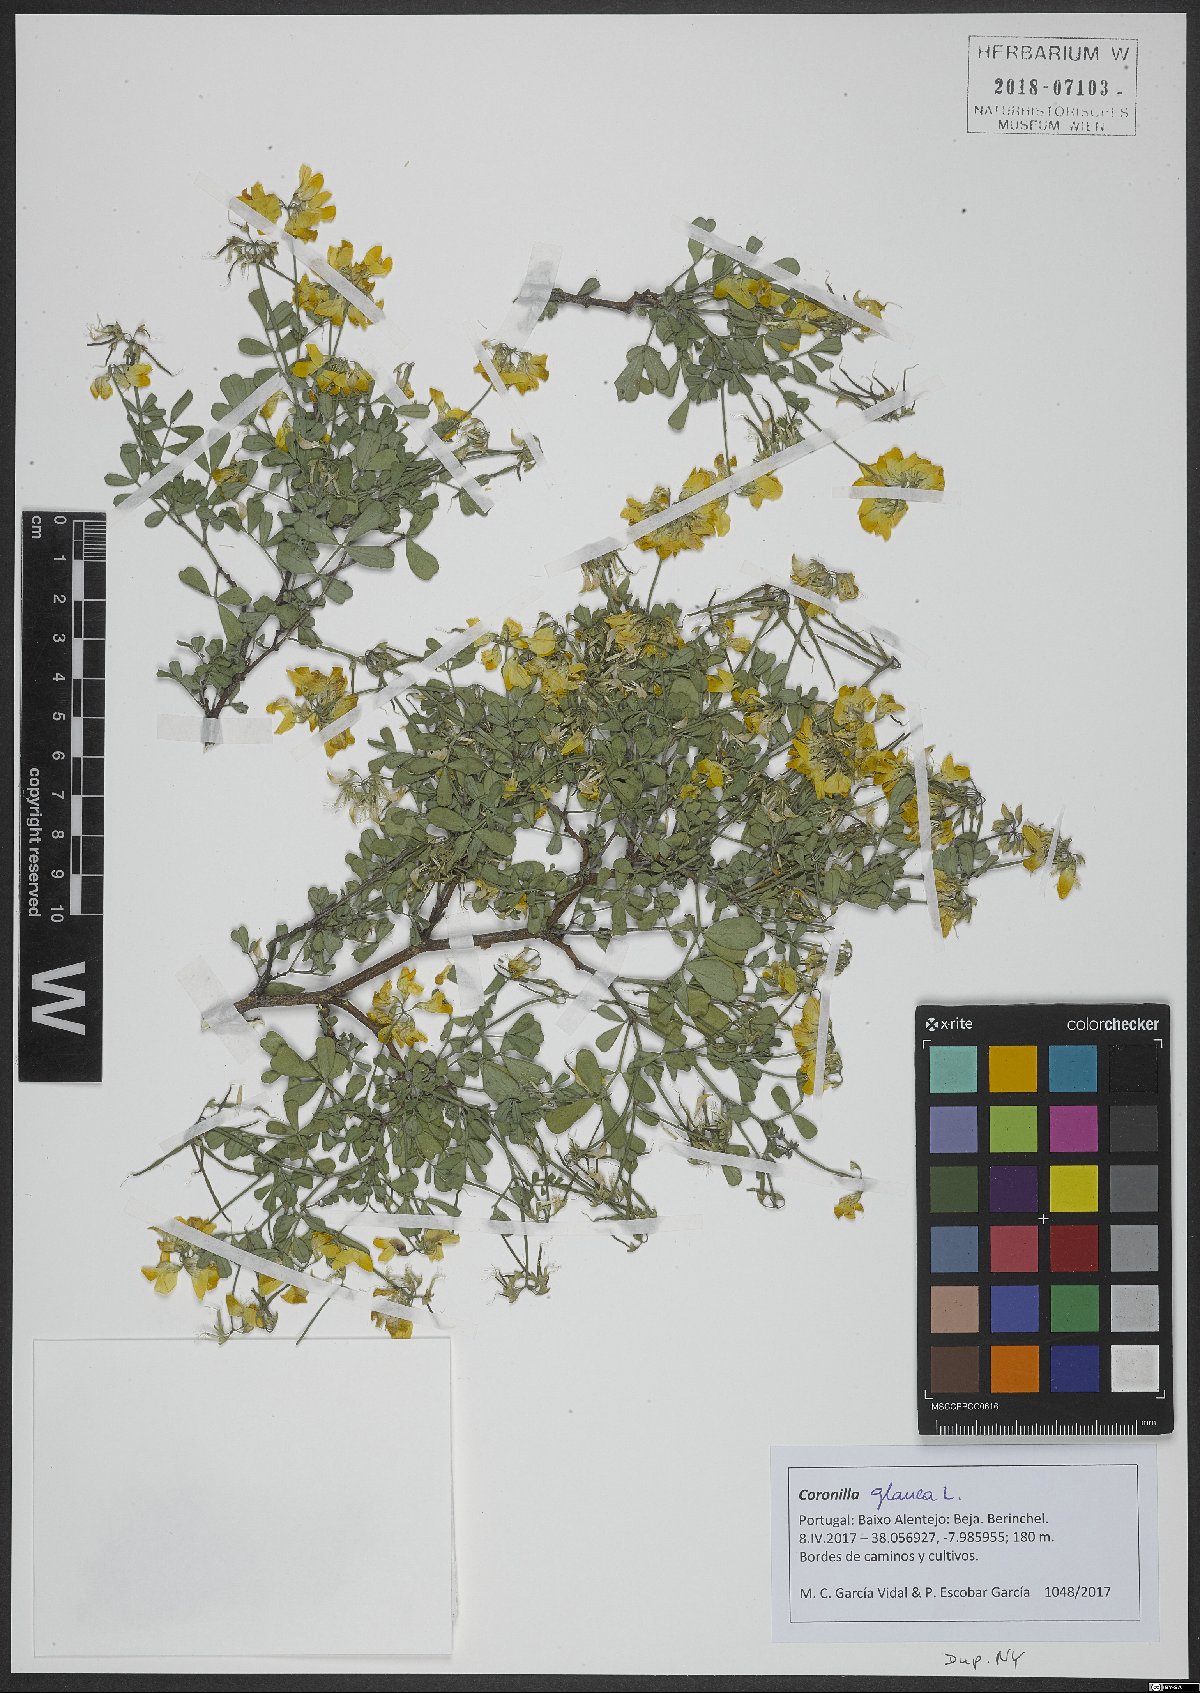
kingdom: Plantae
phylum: Tracheophyta
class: Magnoliopsida
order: Fabales
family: Fabaceae
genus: Coronilla
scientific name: Coronilla valentina
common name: Shrubby scorpion-vetch
